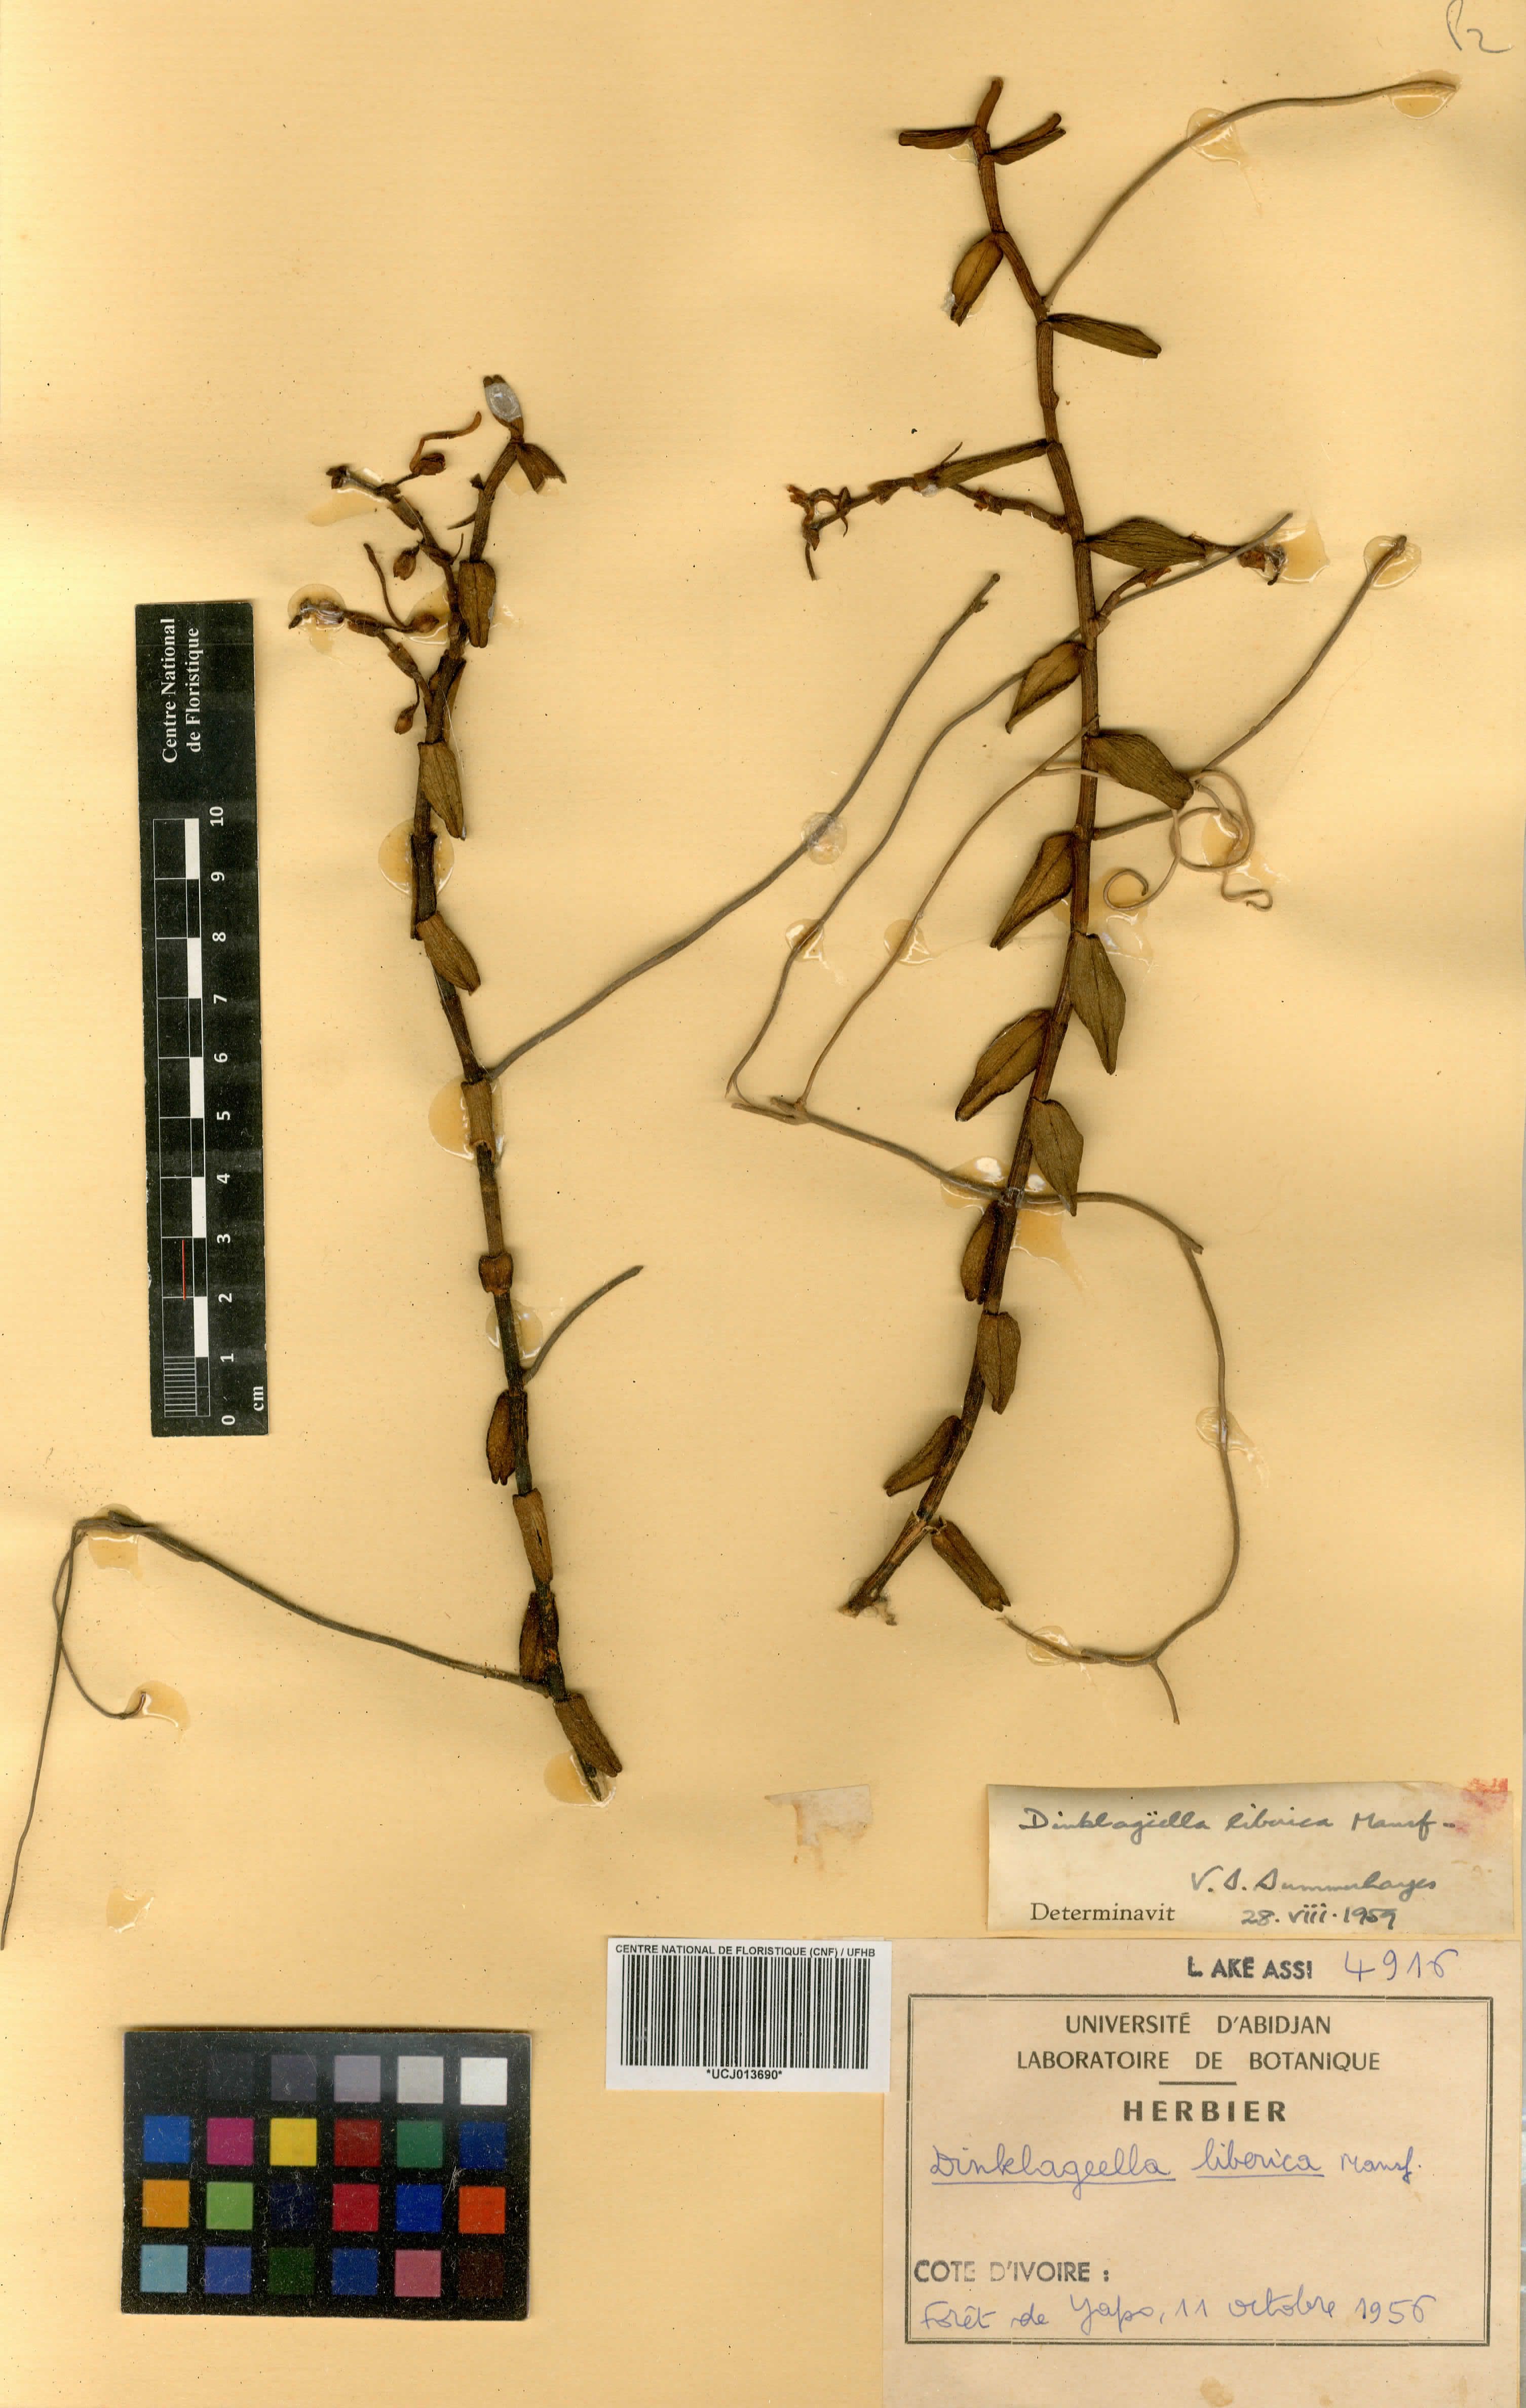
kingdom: Plantae
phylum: Tracheophyta
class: Liliopsida
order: Asparagales
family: Orchidaceae
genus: Dinklageella
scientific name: Dinklageella liberica
